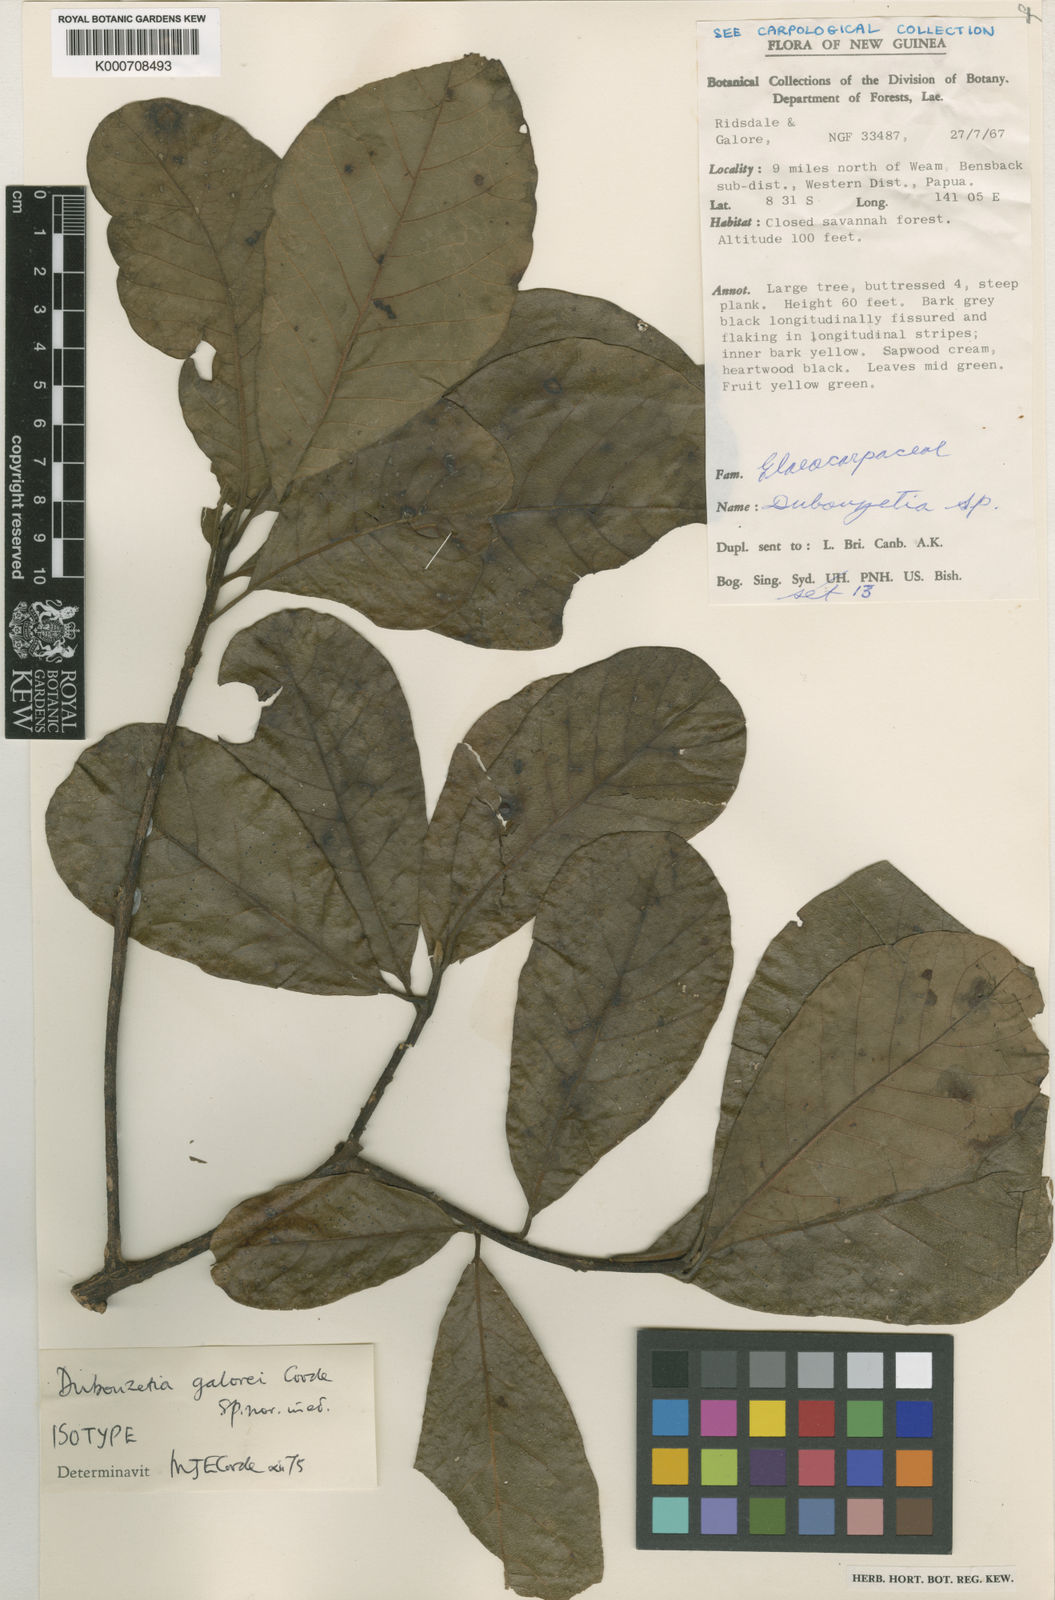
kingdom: Plantae
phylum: Tracheophyta
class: Magnoliopsida
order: Oxalidales
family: Elaeocarpaceae
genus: Dubouzetia
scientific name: Dubouzetia galorei
